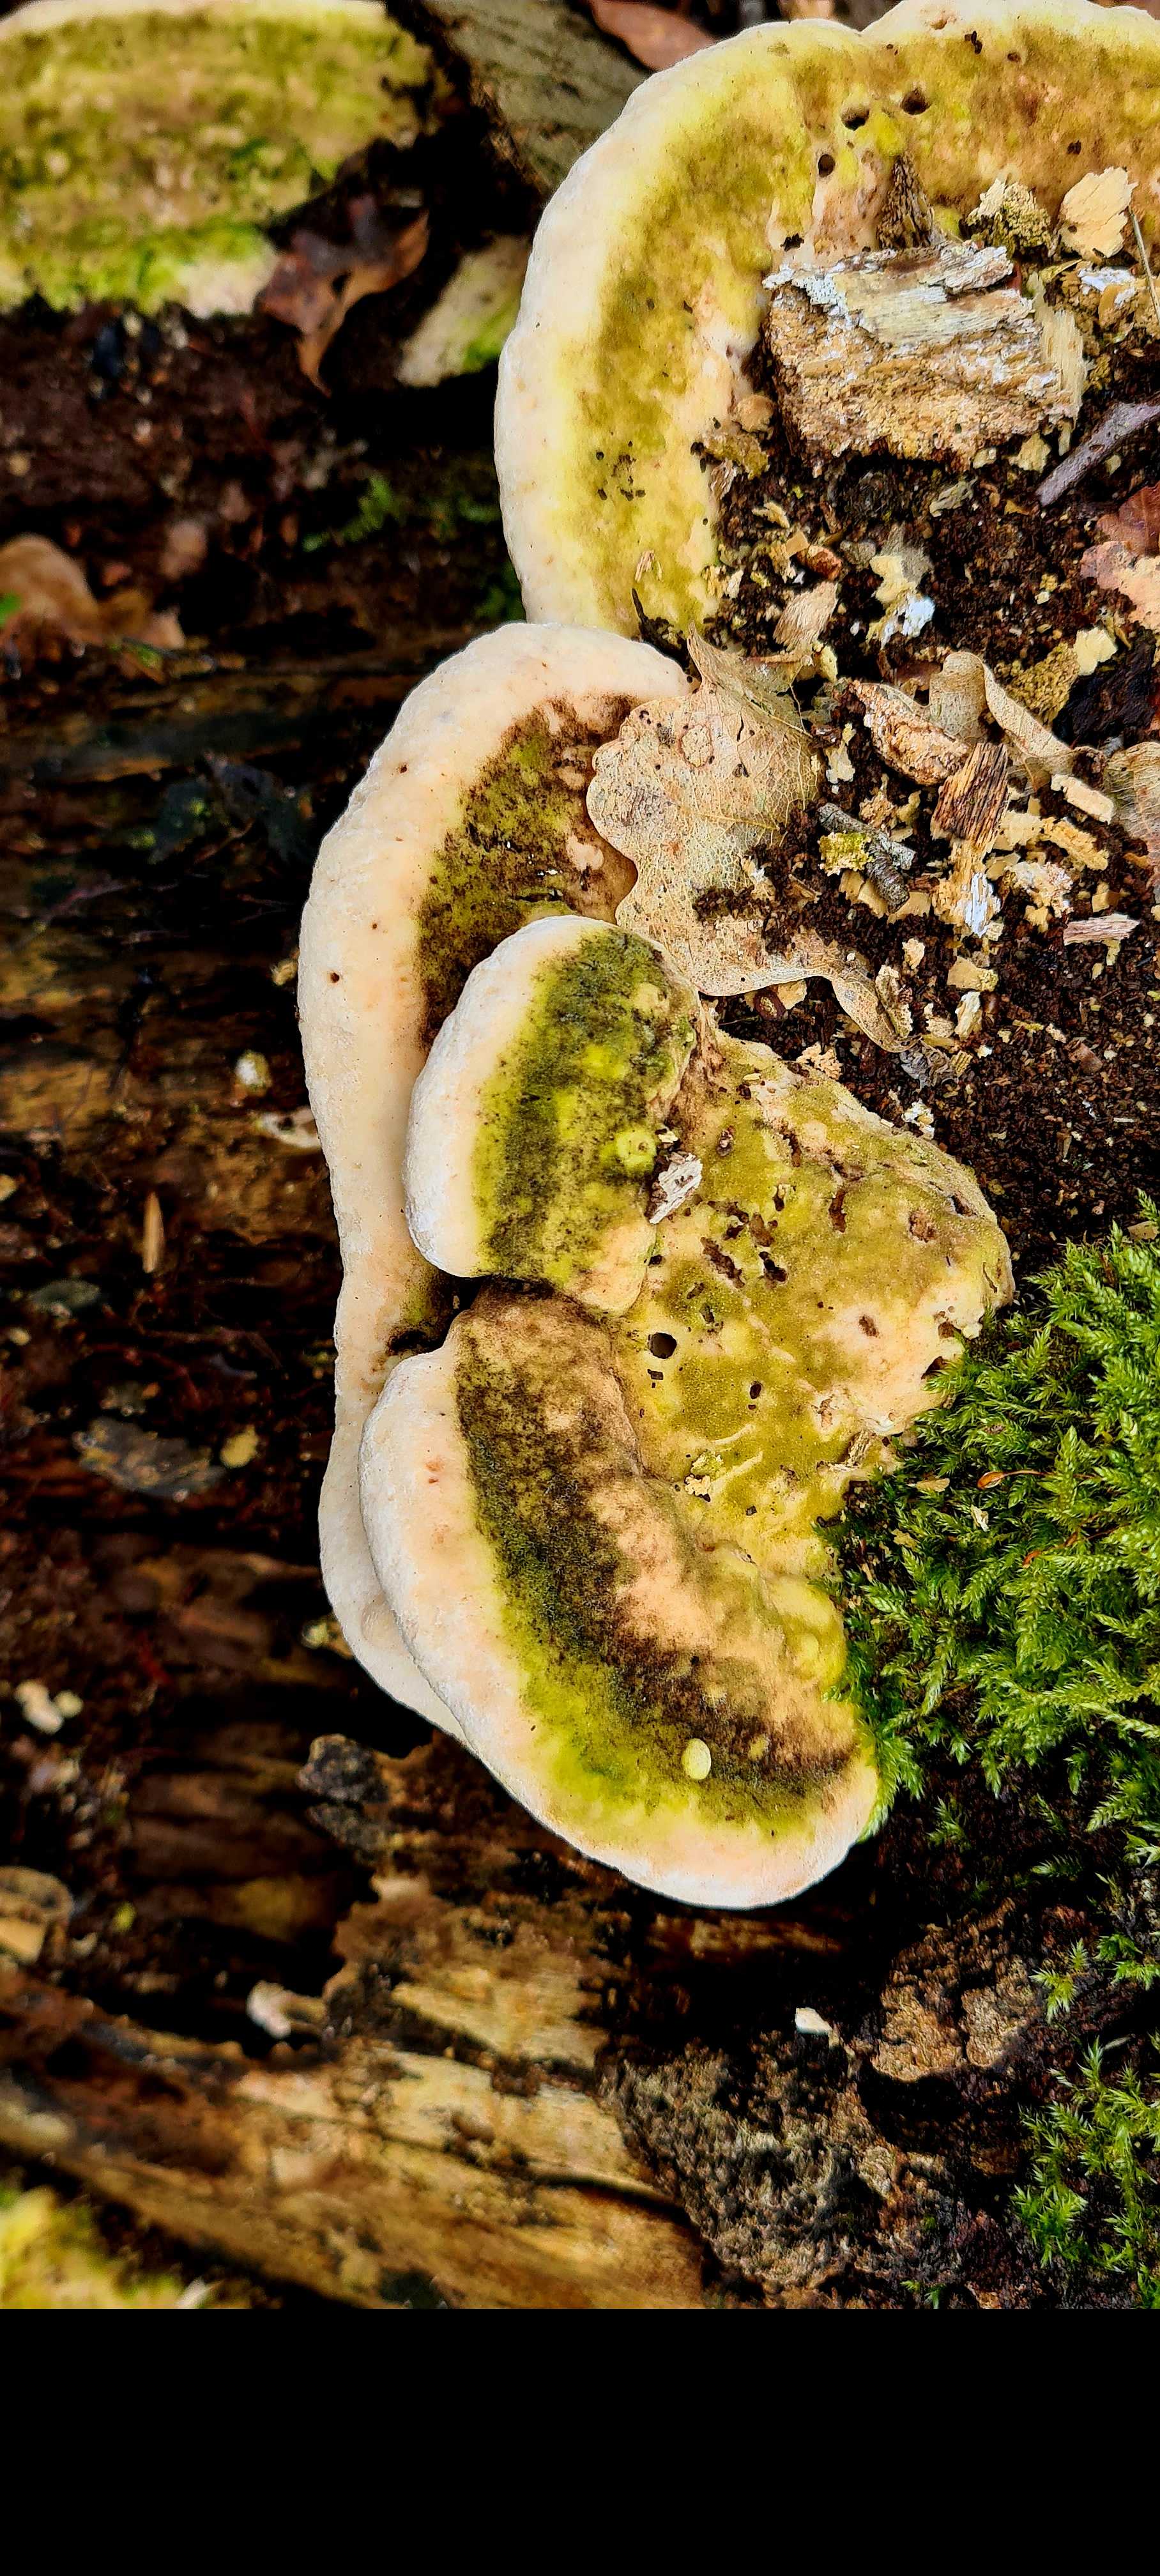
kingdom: Fungi
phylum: Basidiomycota
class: Agaricomycetes
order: Polyporales
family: Polyporaceae
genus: Trametes
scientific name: Trametes gibbosa
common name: puklet læderporesvamp
